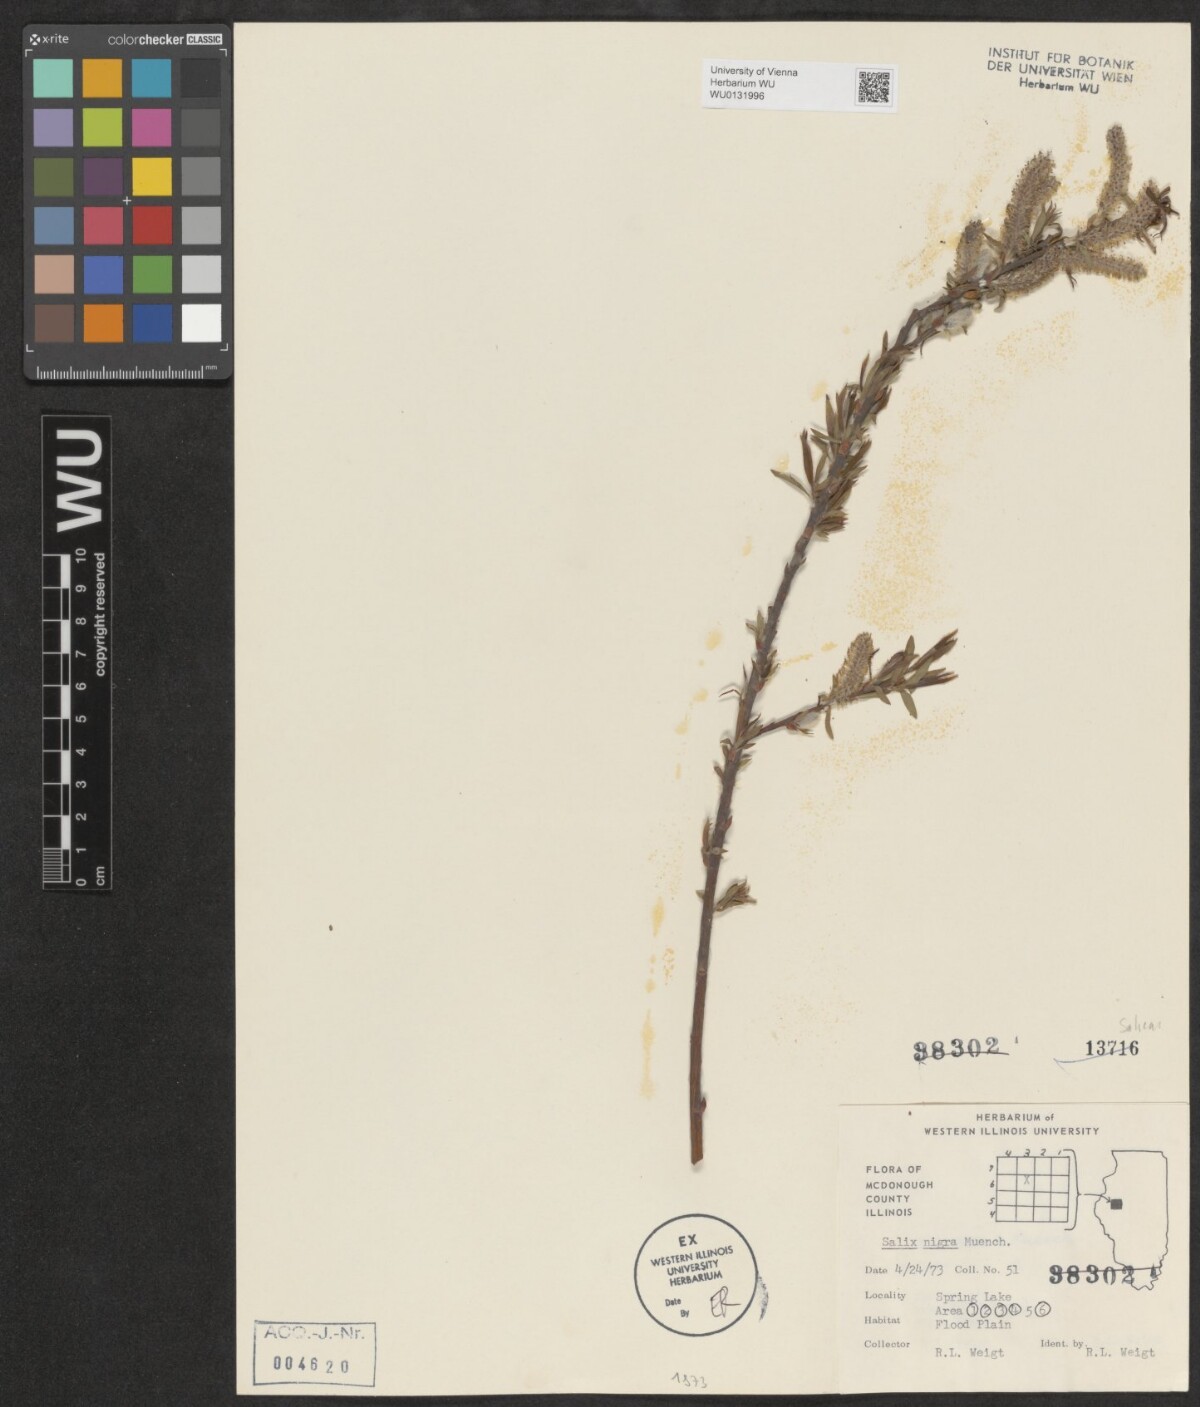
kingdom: Plantae
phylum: Tracheophyta
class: Magnoliopsida
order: Malpighiales
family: Salicaceae
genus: Salix
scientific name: Salix nigra
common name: Black willow
